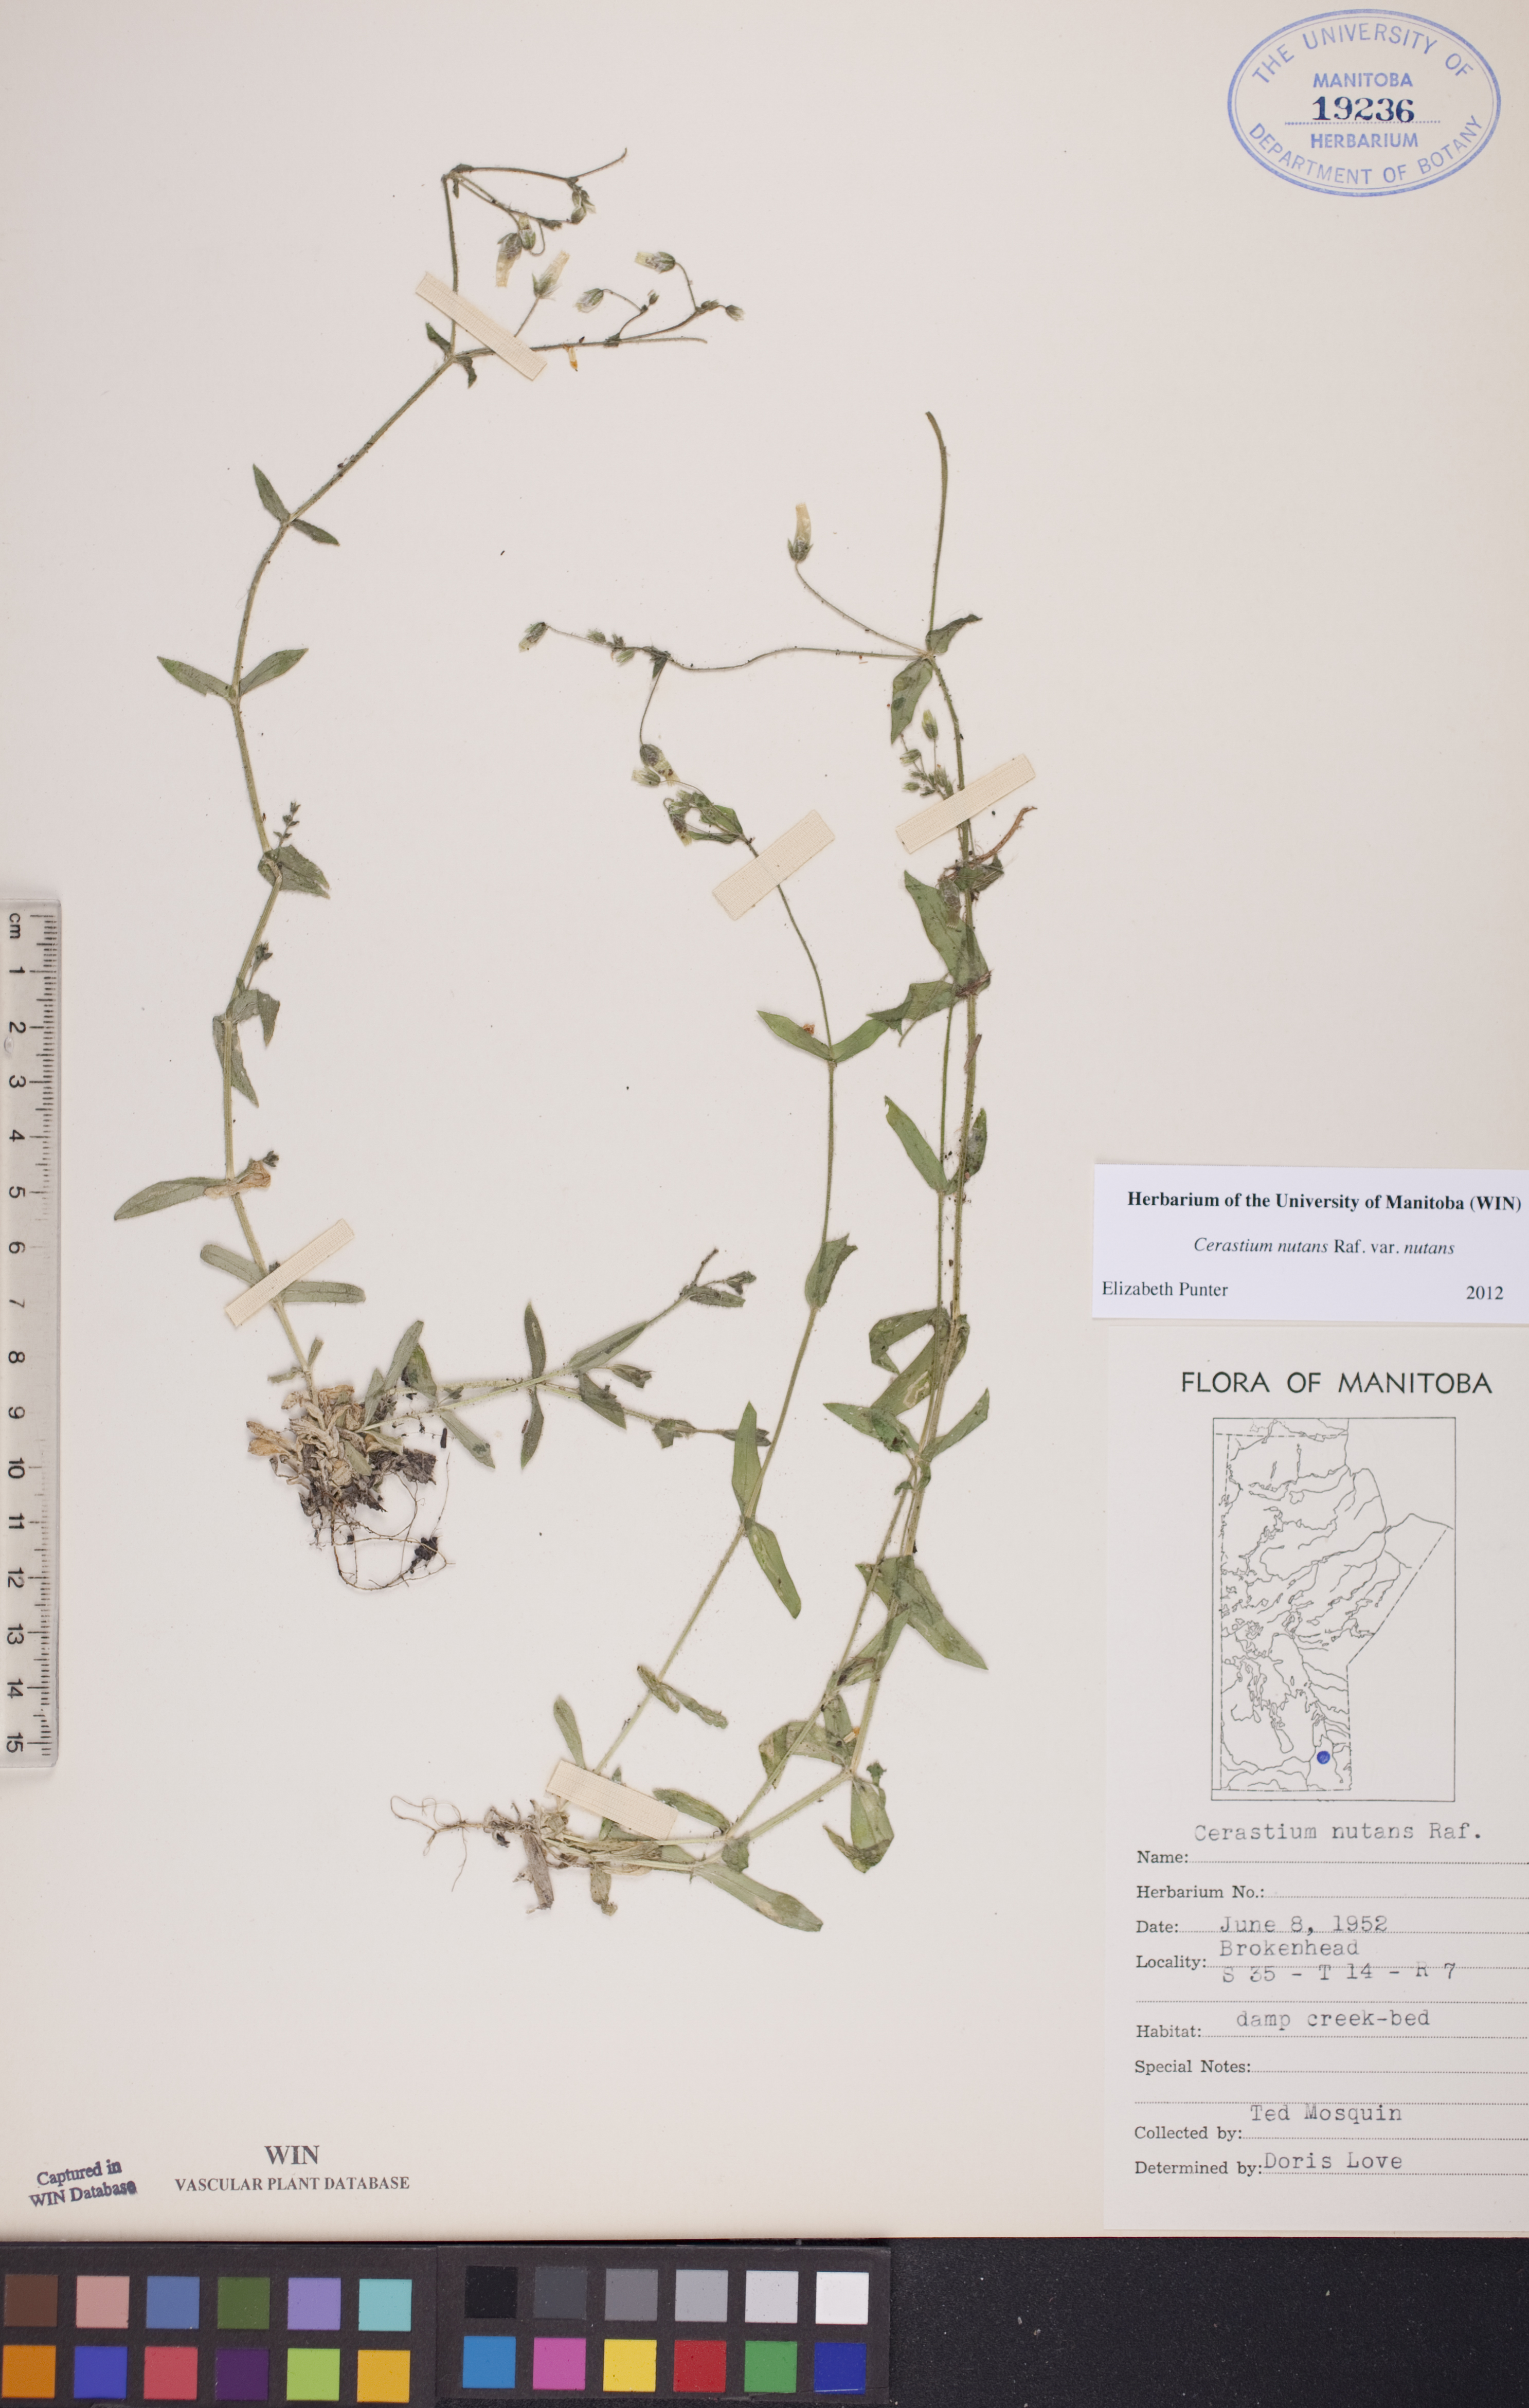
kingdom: Plantae
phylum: Tracheophyta
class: Magnoliopsida
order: Caryophyllales
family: Caryophyllaceae
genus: Cerastium
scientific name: Cerastium nutans
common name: Long-stalked chickweed
